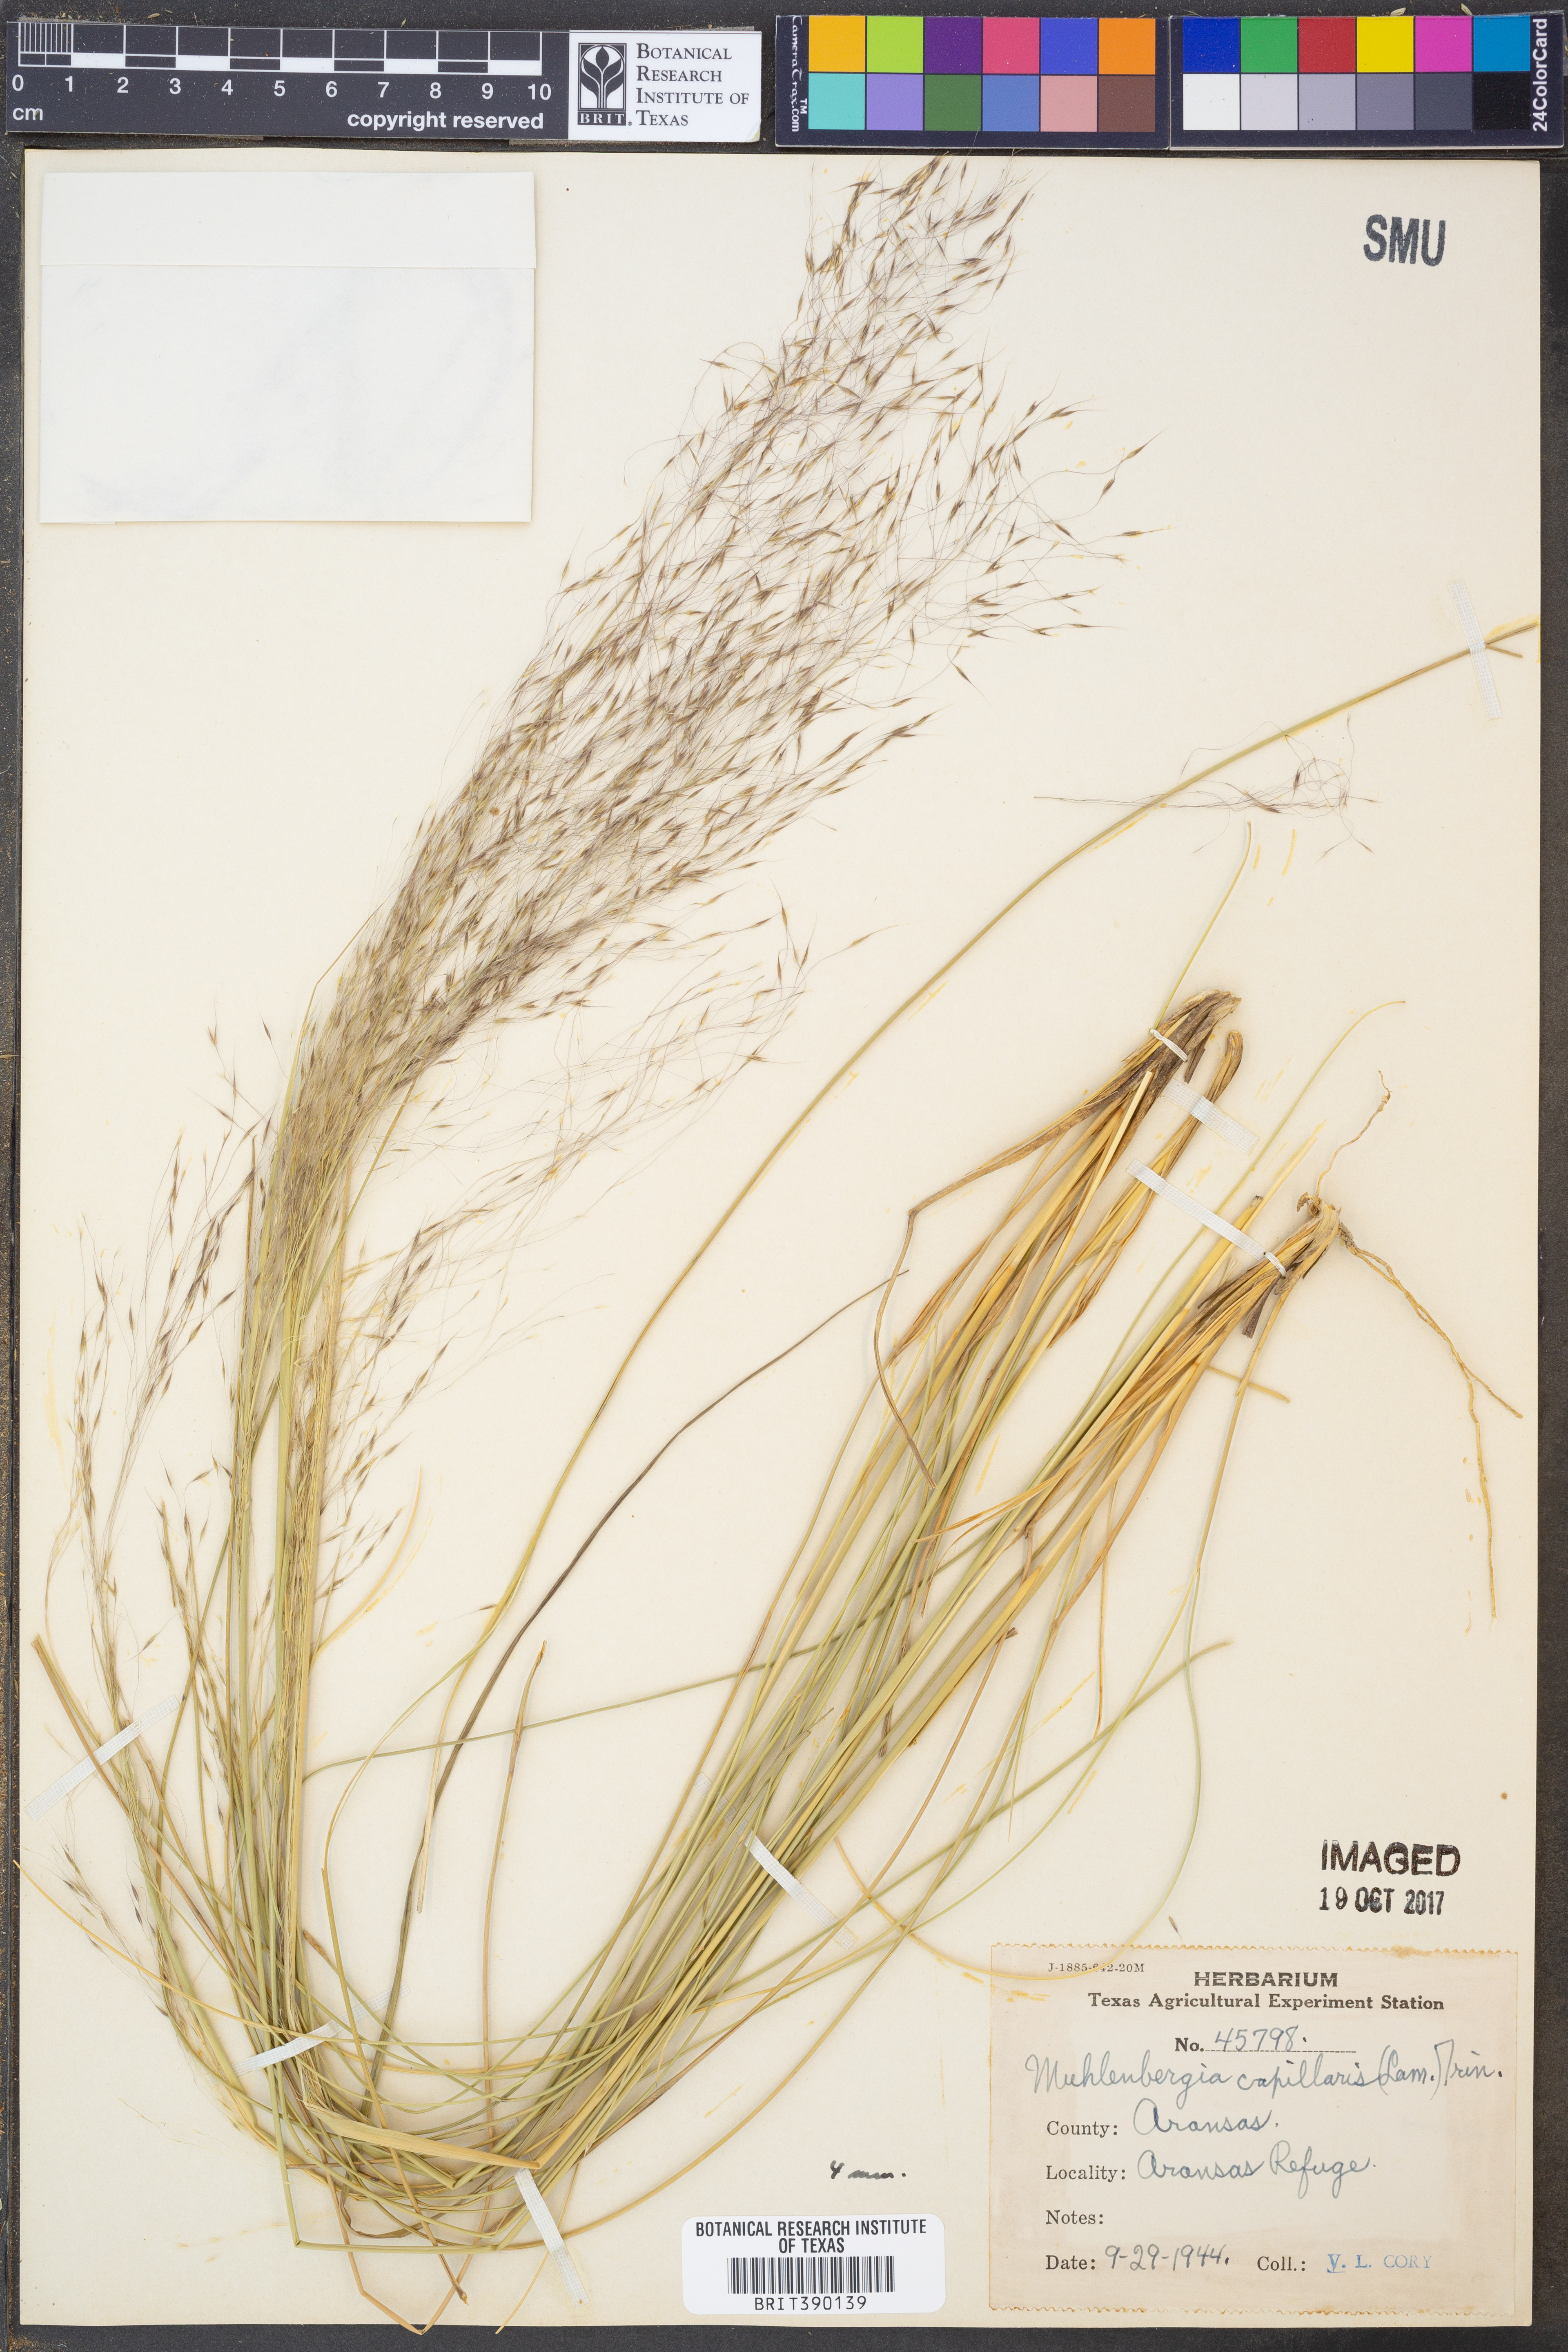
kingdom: Plantae
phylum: Tracheophyta
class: Liliopsida
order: Poales
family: Poaceae
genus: Muhlenbergia
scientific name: Muhlenbergia capillaris
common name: Purple grass
